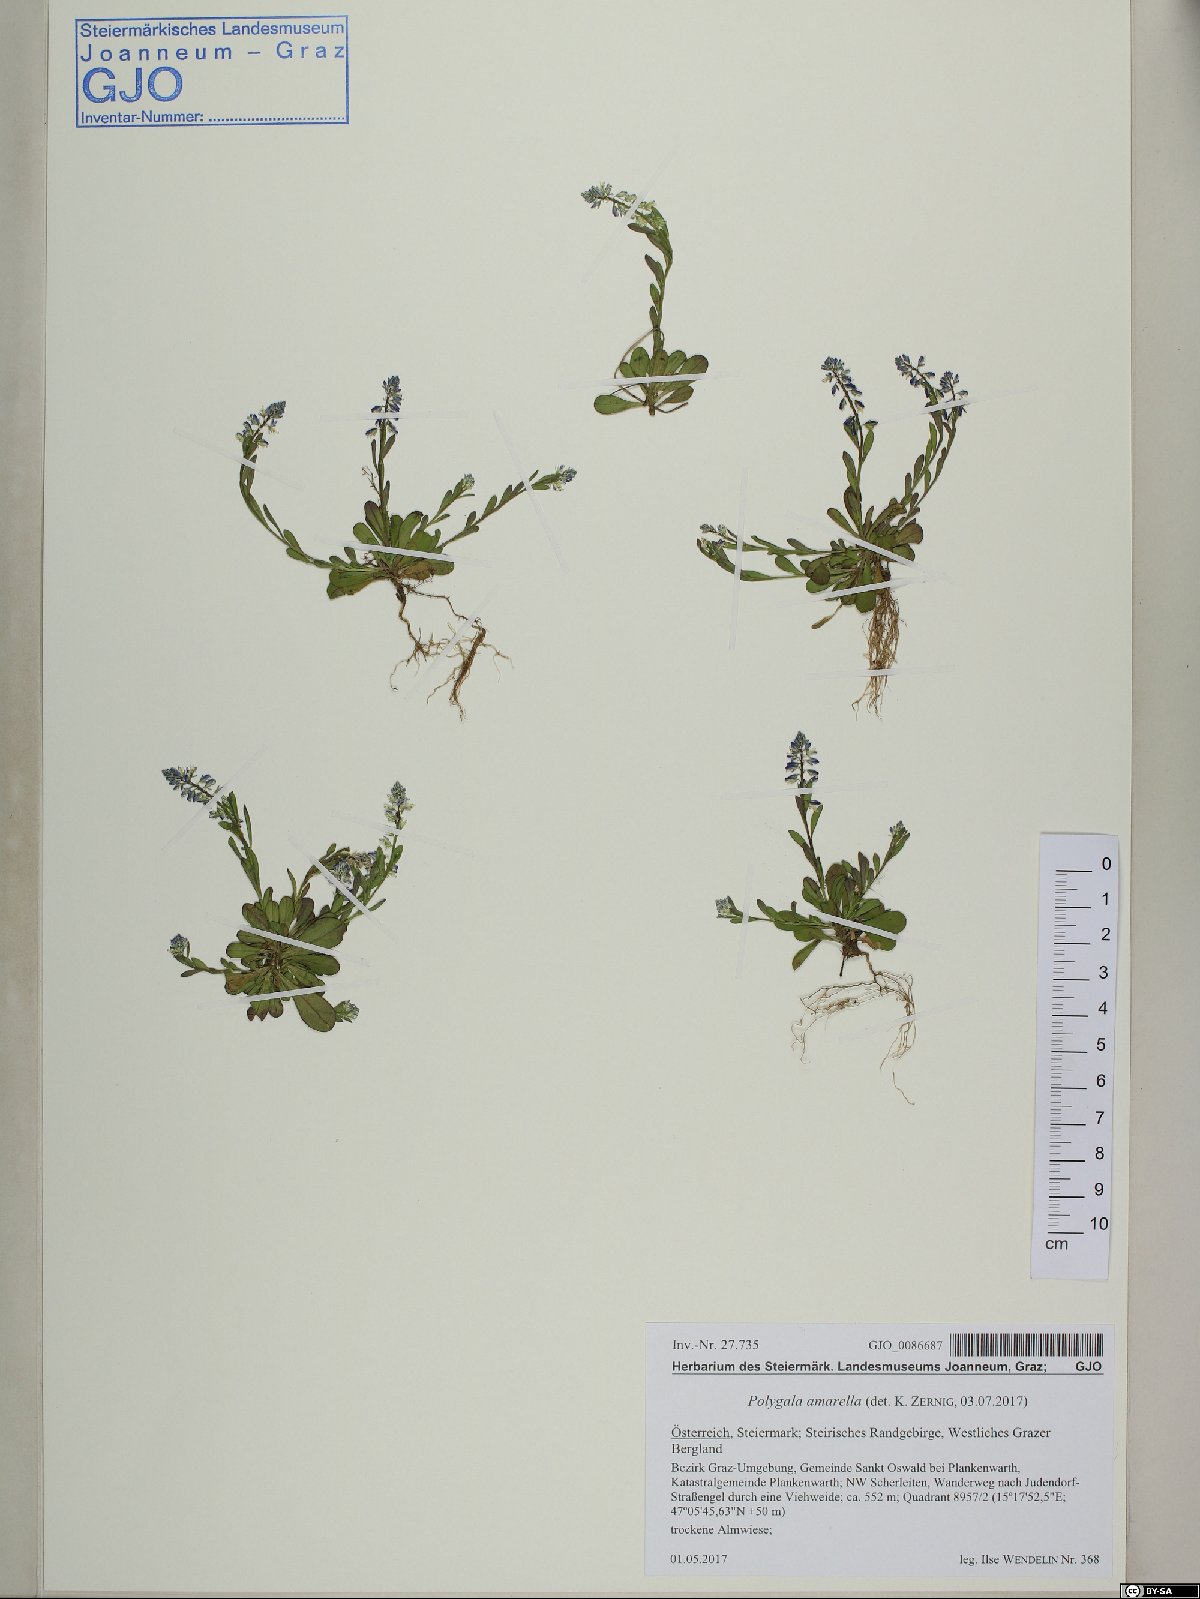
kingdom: Plantae
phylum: Tracheophyta
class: Magnoliopsida
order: Fabales
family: Polygalaceae
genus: Polygala
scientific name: Polygala amarella
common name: Dwarf milkwort
